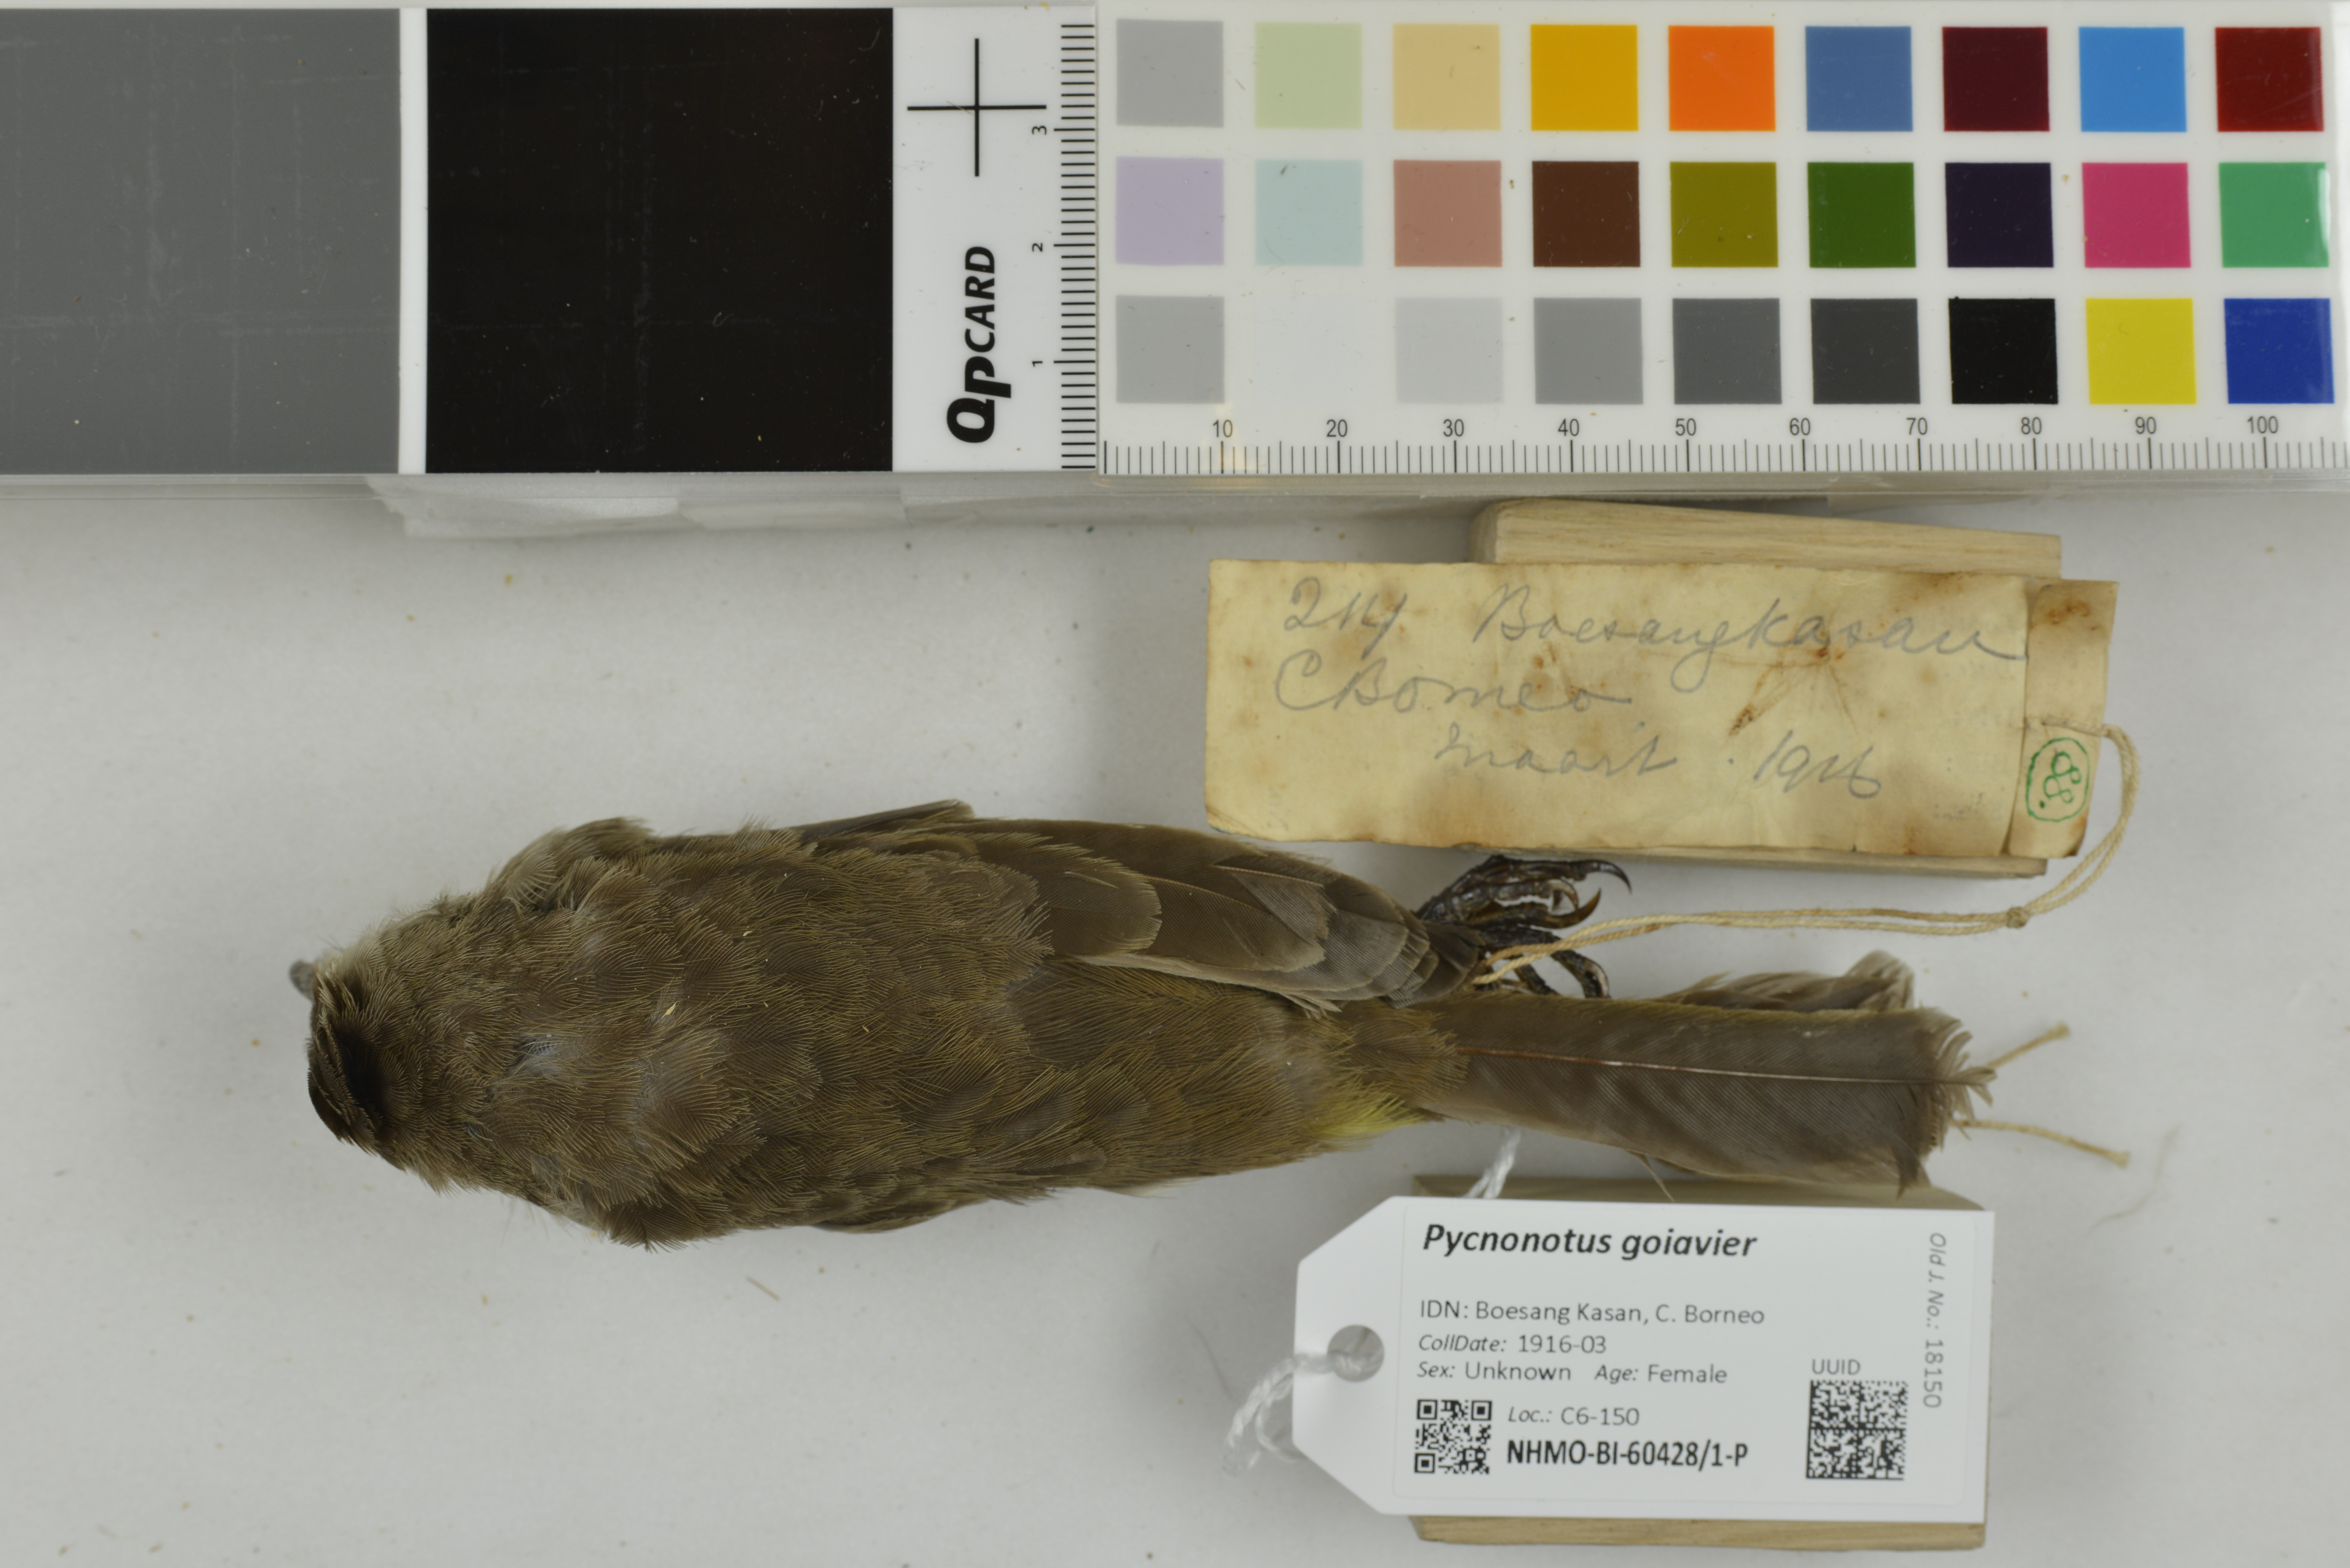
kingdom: Animalia
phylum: Chordata
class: Aves
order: Passeriformes
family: Pycnonotidae
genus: Pycnonotus
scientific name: Pycnonotus goiavier
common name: Yellow-vented bulbul
